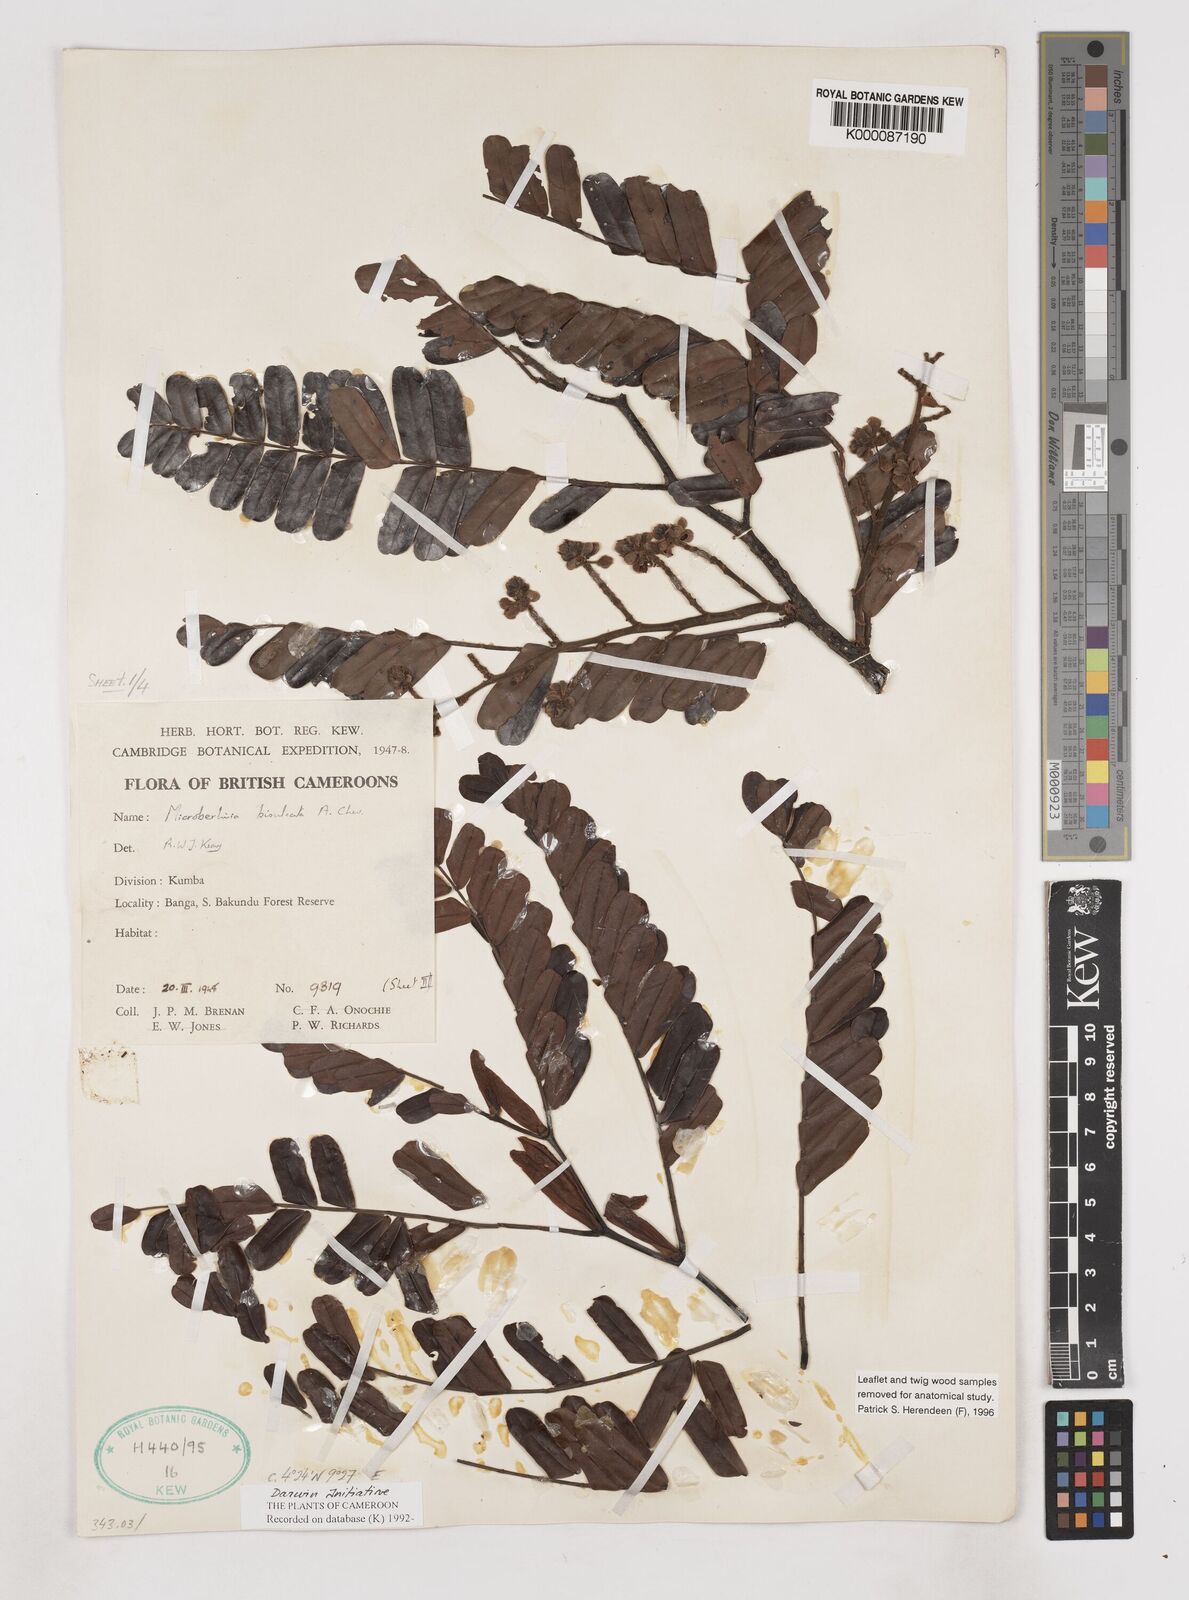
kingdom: Plantae
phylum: Tracheophyta
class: Magnoliopsida
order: Fabales
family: Fabaceae
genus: Microberlinia
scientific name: Microberlinia bisulcata
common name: Zingana
